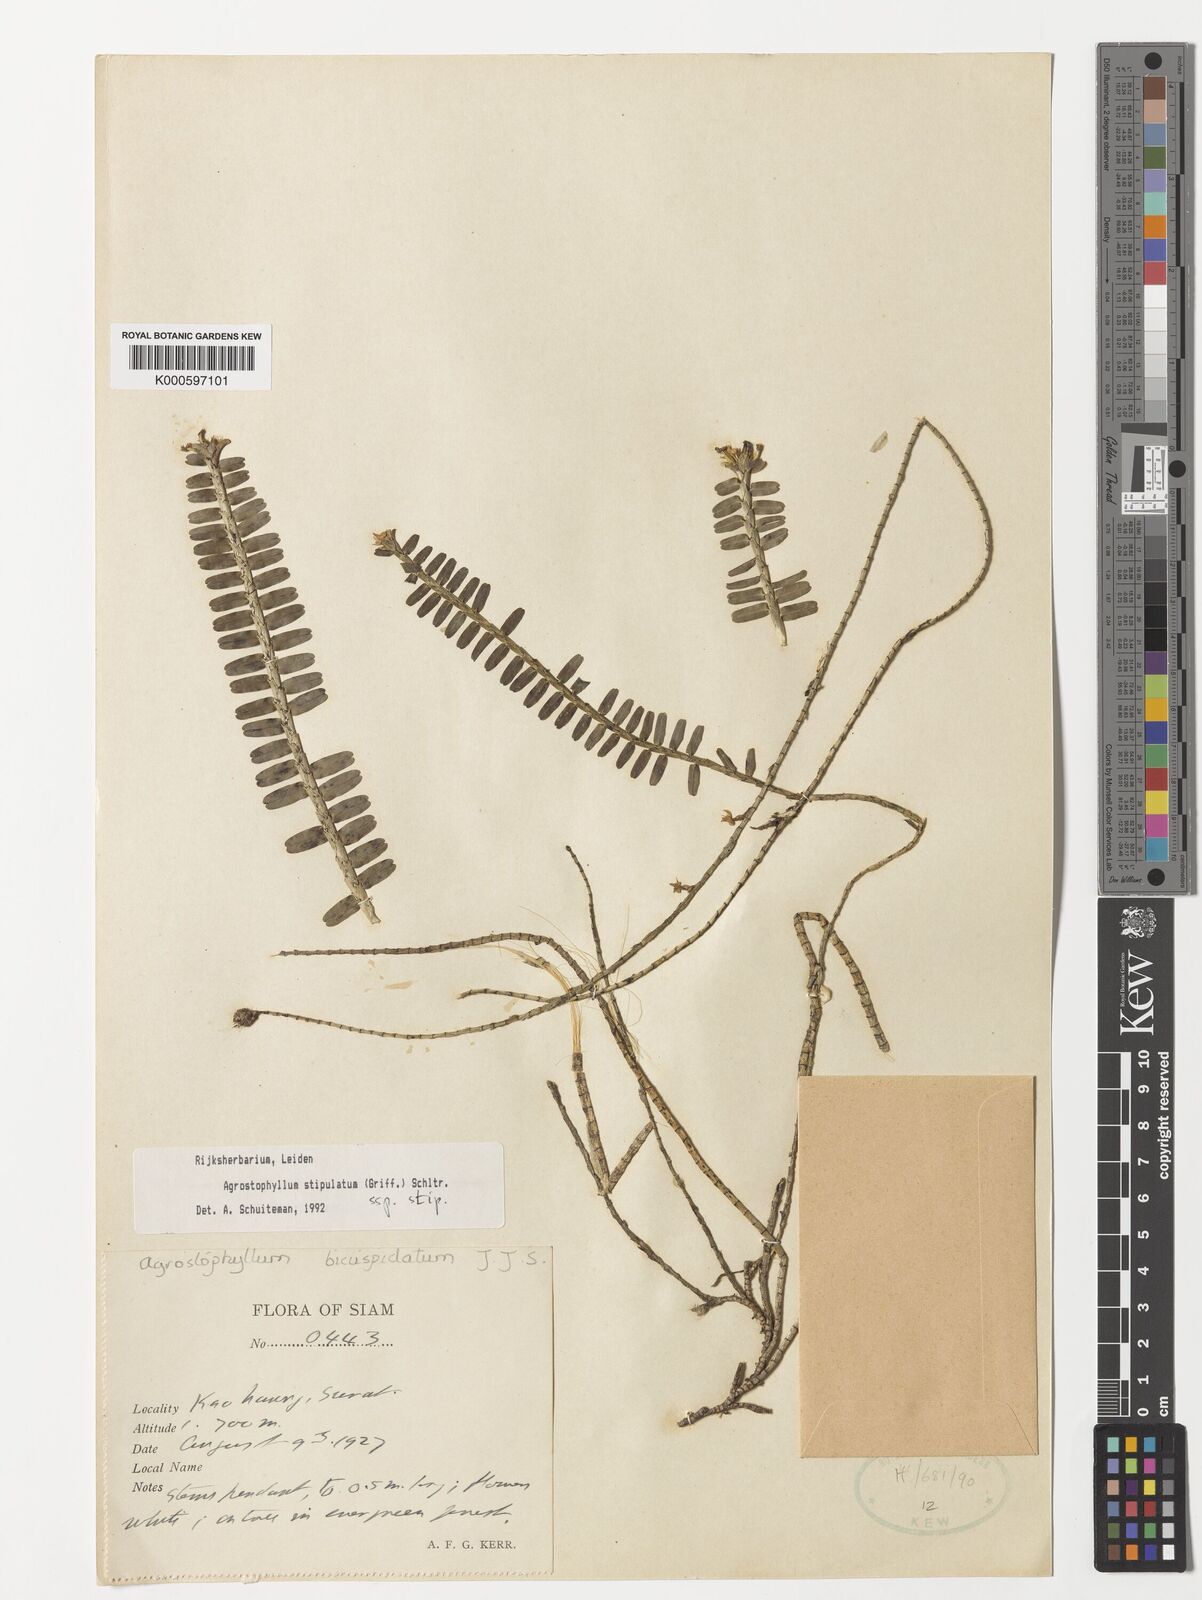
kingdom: Plantae
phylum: Tracheophyta
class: Liliopsida
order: Asparagales
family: Orchidaceae
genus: Agrostophyllum
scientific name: Agrostophyllum stipulatum
